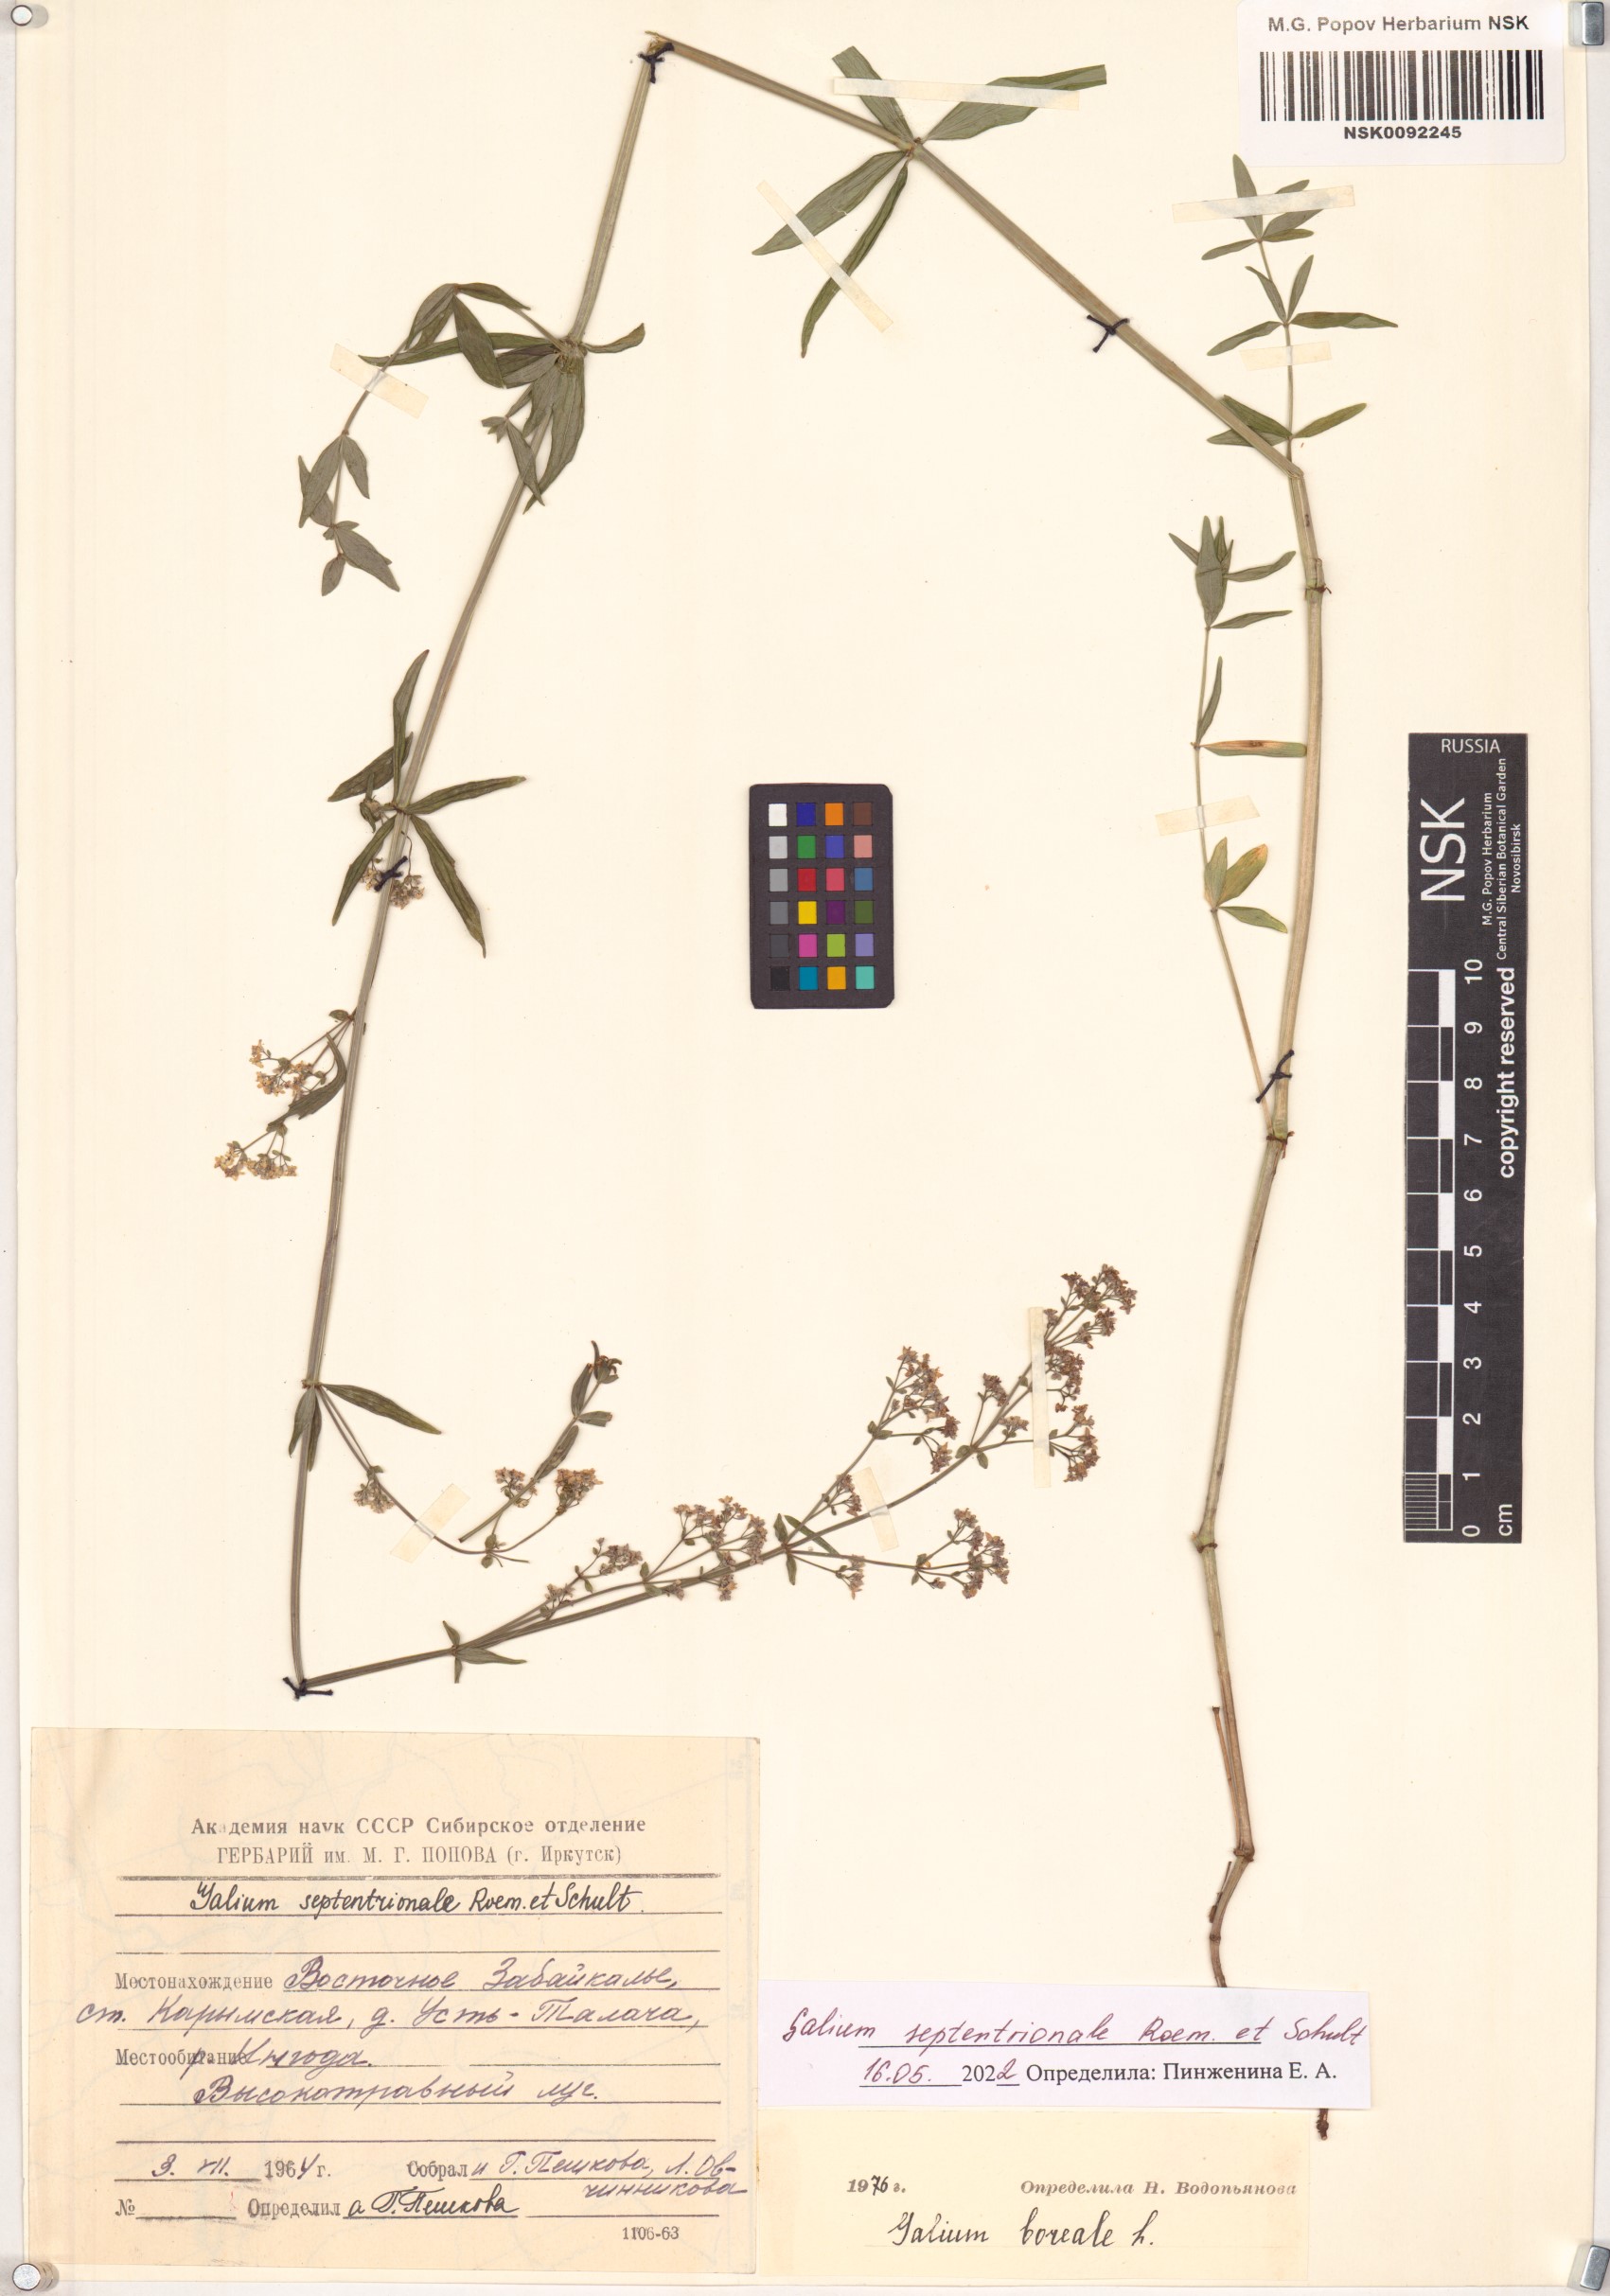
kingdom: Plantae
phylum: Tracheophyta
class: Magnoliopsida
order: Gentianales
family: Rubiaceae
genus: Galium
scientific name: Galium boreale
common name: Northern bedstraw
